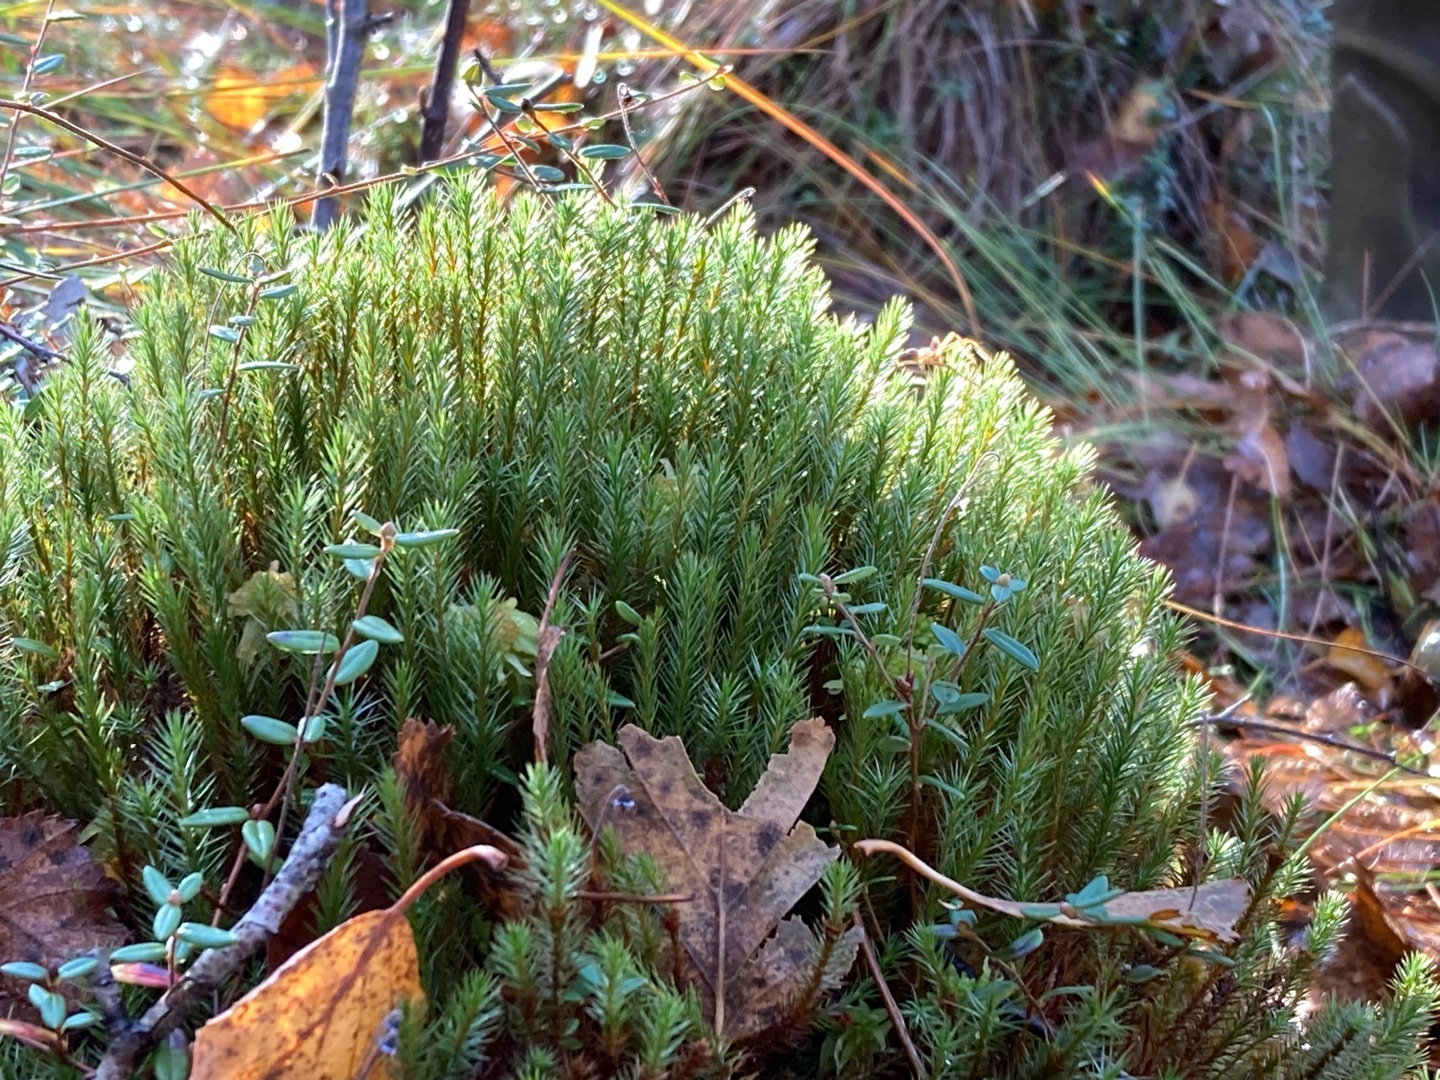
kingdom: Plantae
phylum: Bryophyta
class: Polytrichopsida
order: Polytrichales
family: Polytrichaceae
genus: Polytrichum
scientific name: Polytrichum strictum
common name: Filtstænglet jomfruhår
